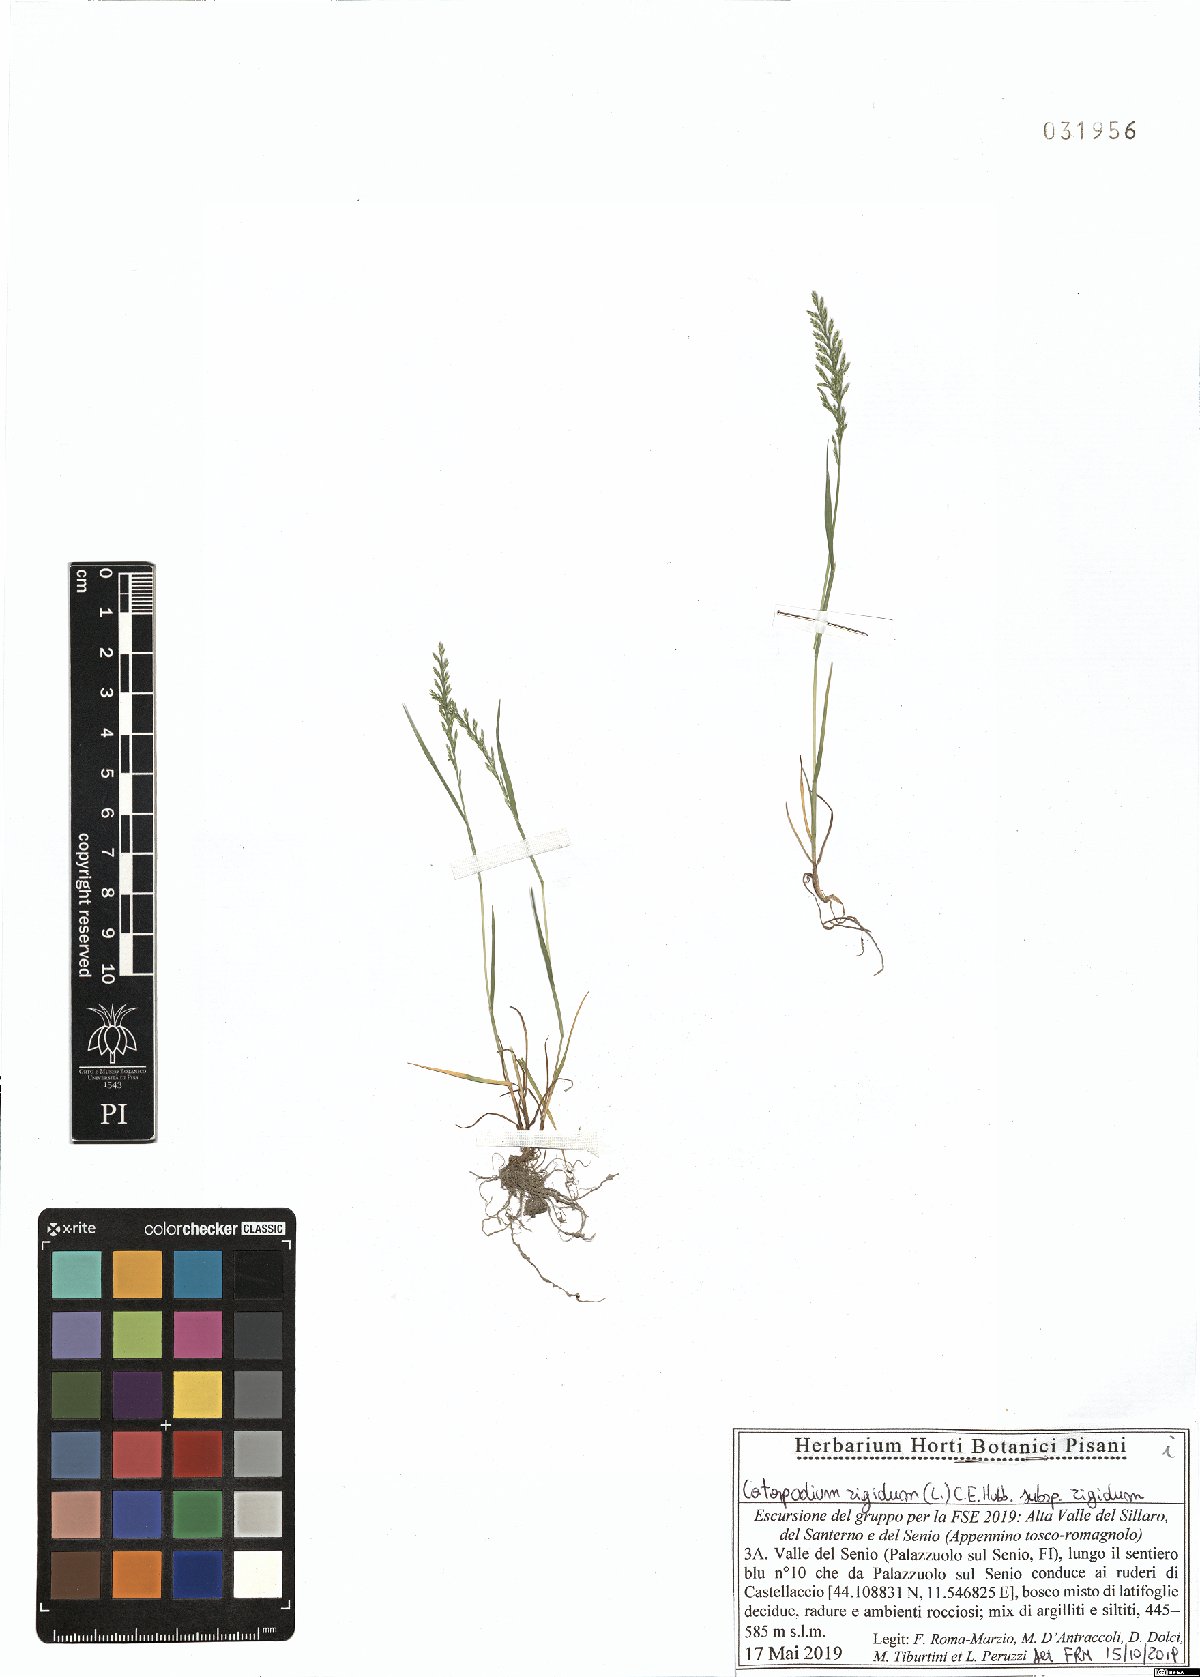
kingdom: Plantae
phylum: Tracheophyta
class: Liliopsida
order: Poales
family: Poaceae
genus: Catapodium
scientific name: Catapodium rigidum
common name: Fern-grass
